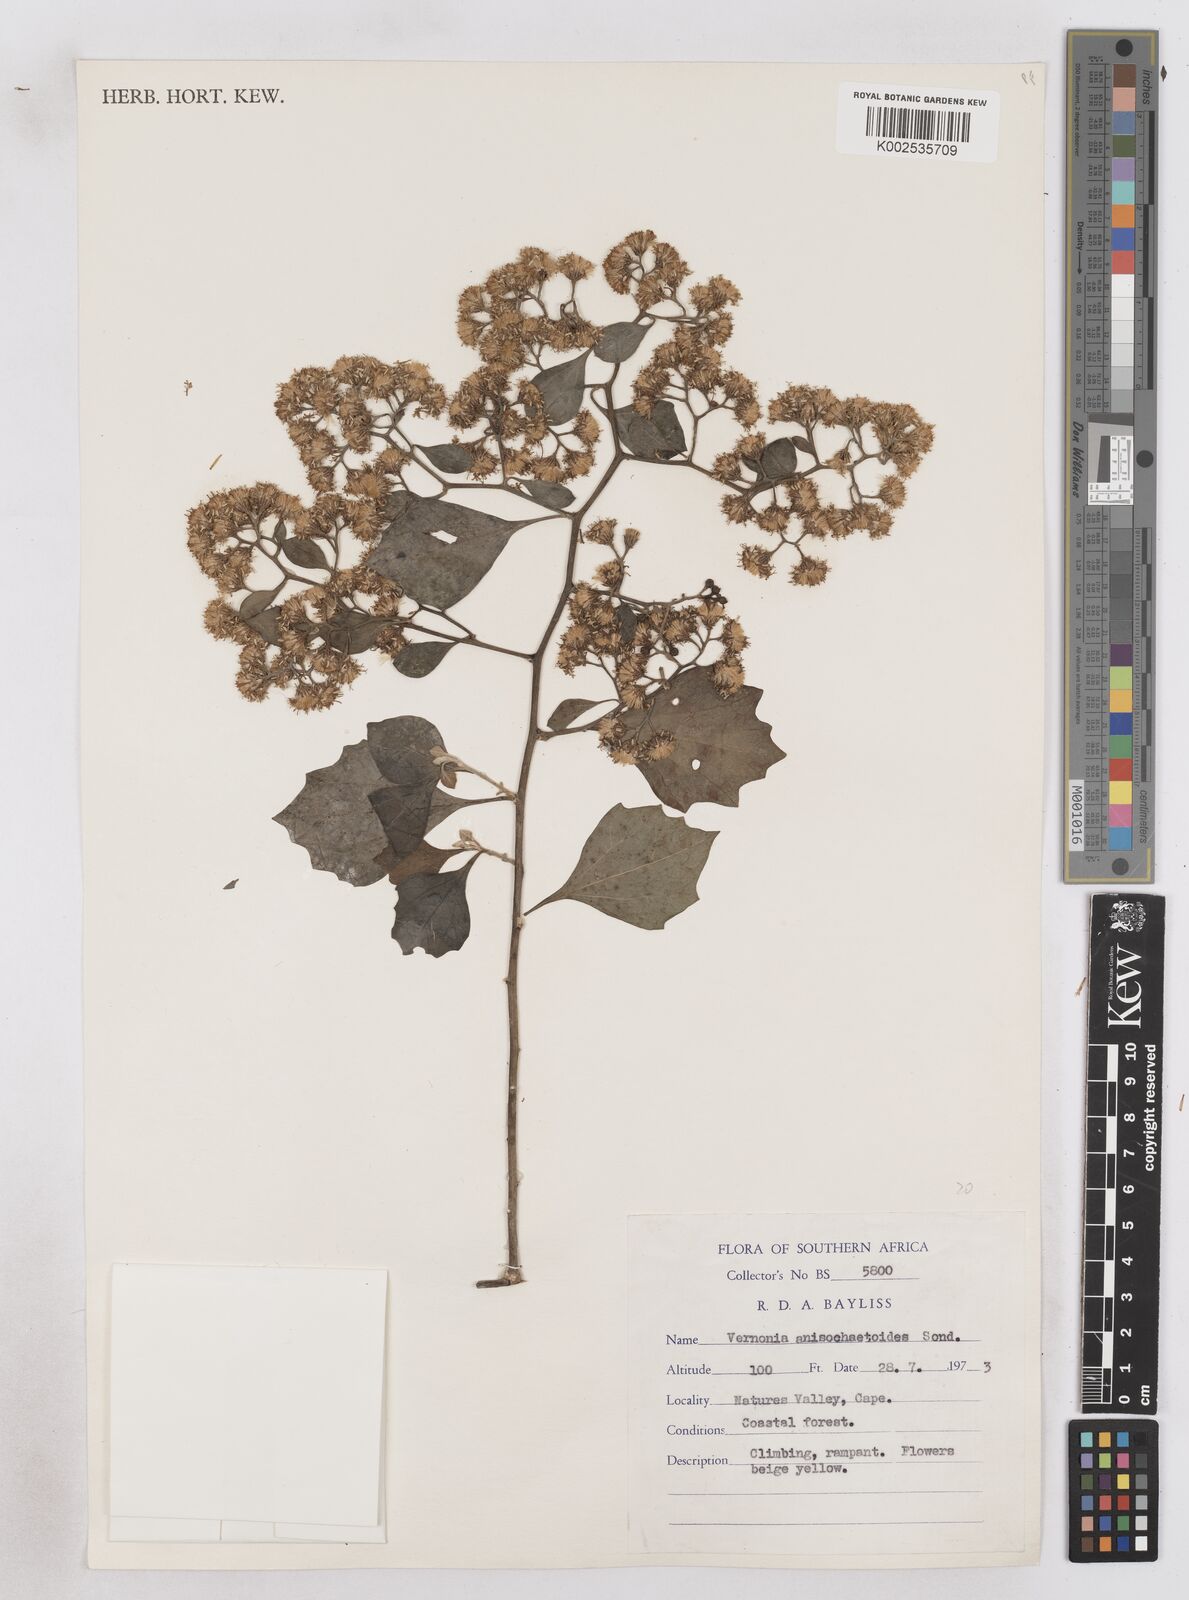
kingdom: Plantae
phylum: Tracheophyta
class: Magnoliopsida
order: Asterales
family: Asteraceae
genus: Distephanus
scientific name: Distephanus anisochaetoides
